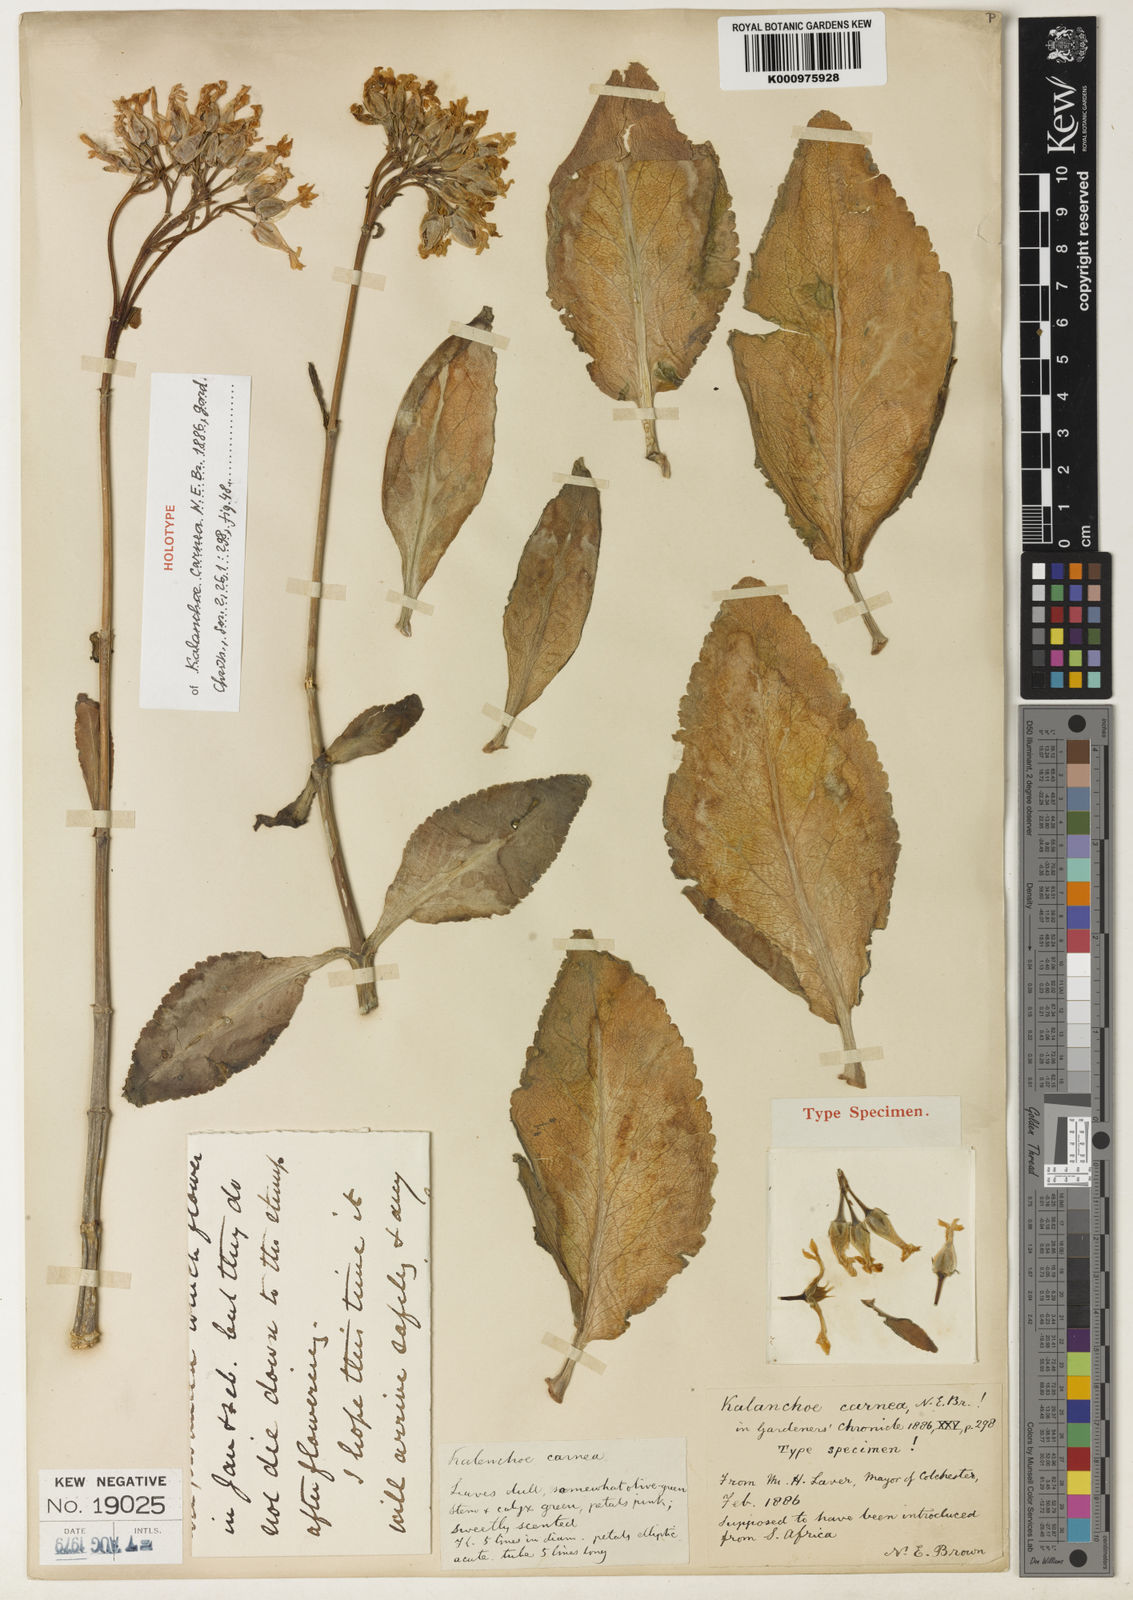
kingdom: Plantae
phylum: Tracheophyta
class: Magnoliopsida
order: Saxifragales
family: Crassulaceae
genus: Kalanchoe
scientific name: Kalanchoe laciniata
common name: Christmastree plant
